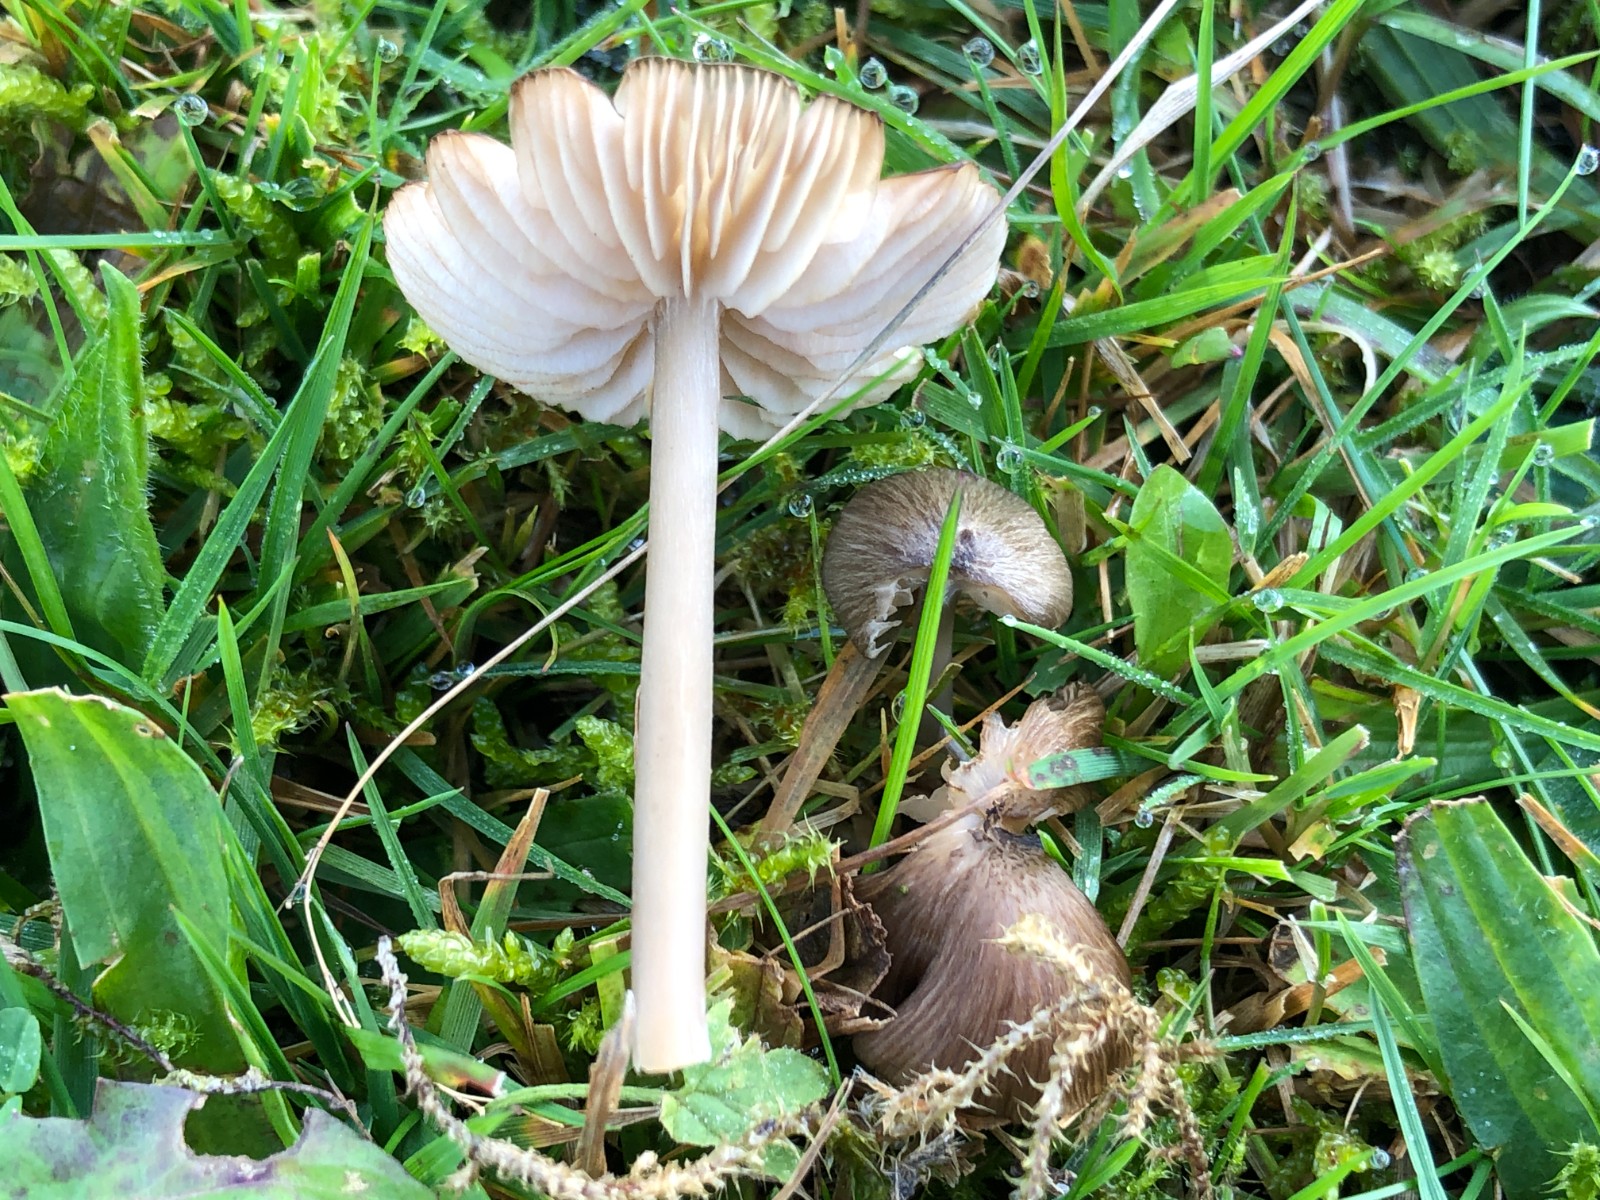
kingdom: Fungi
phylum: Basidiomycota
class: Agaricomycetes
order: Agaricales
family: Entolomataceae
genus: Entoloma
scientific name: Entoloma
